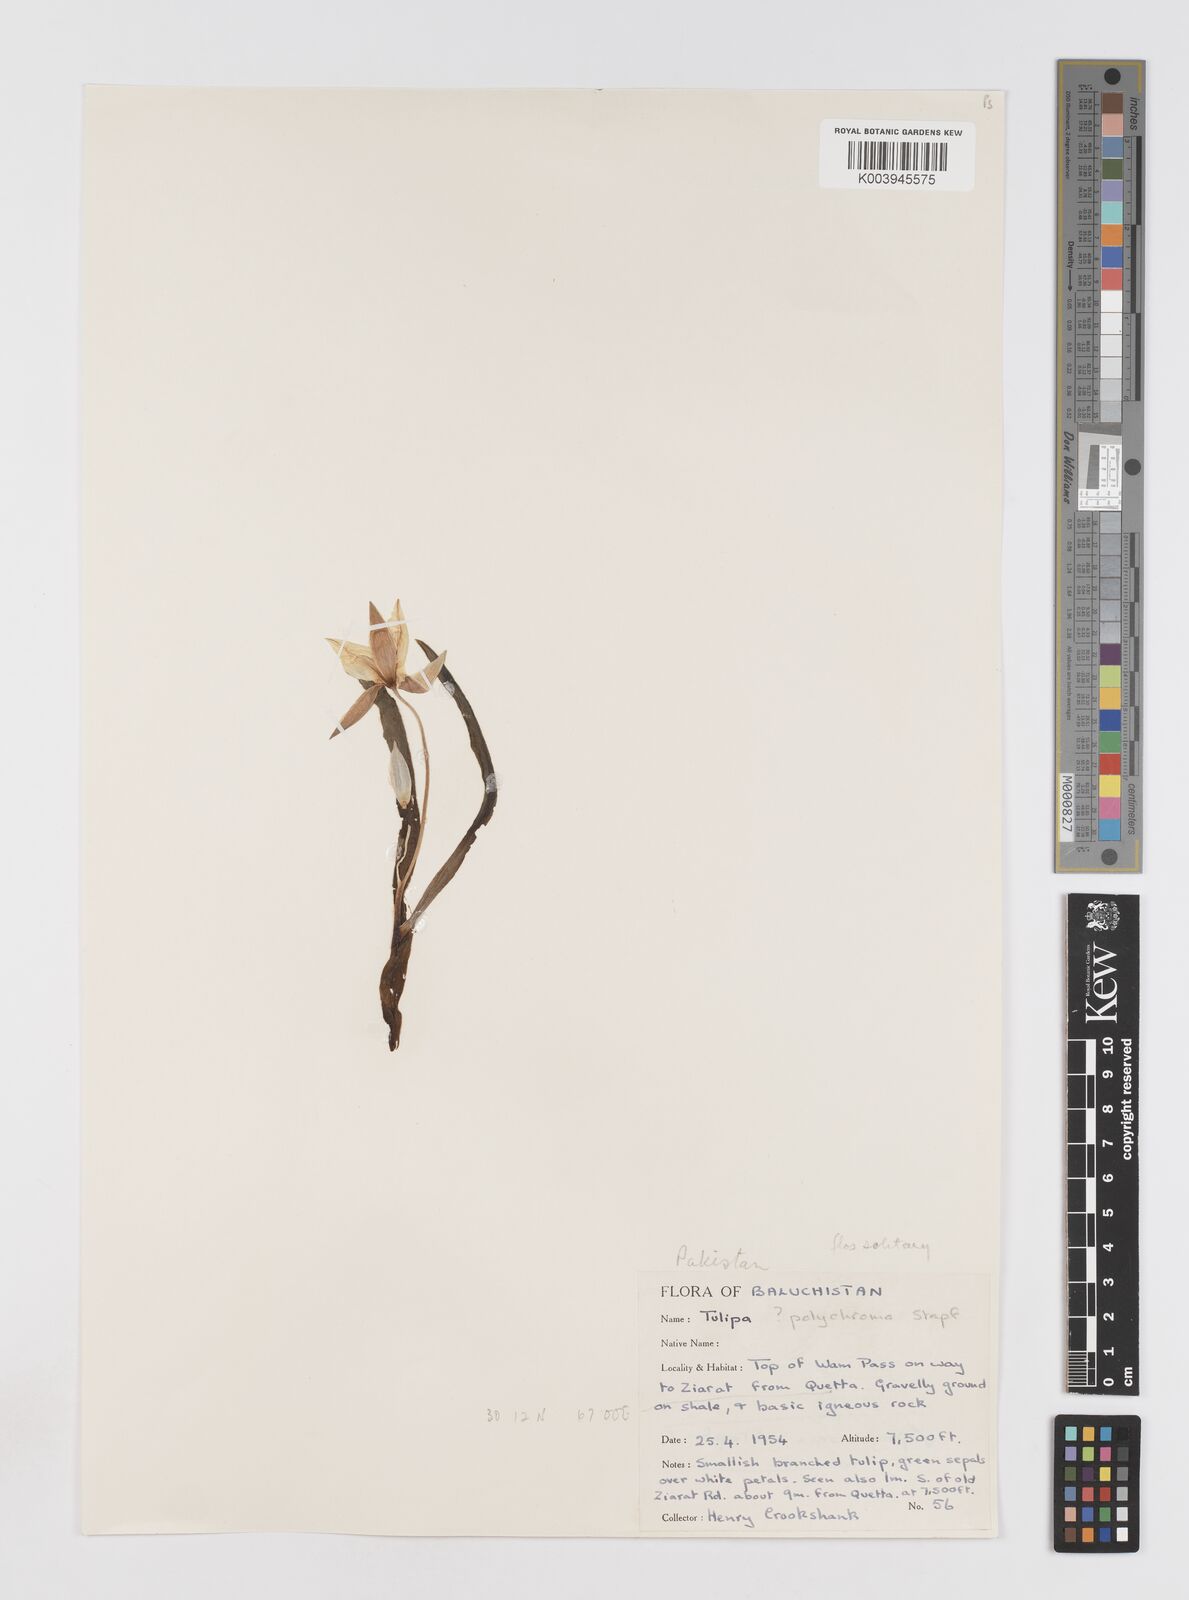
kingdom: Plantae
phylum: Tracheophyta
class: Liliopsida
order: Liliales
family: Liliaceae
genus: Tulipa
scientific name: Tulipa biflora
